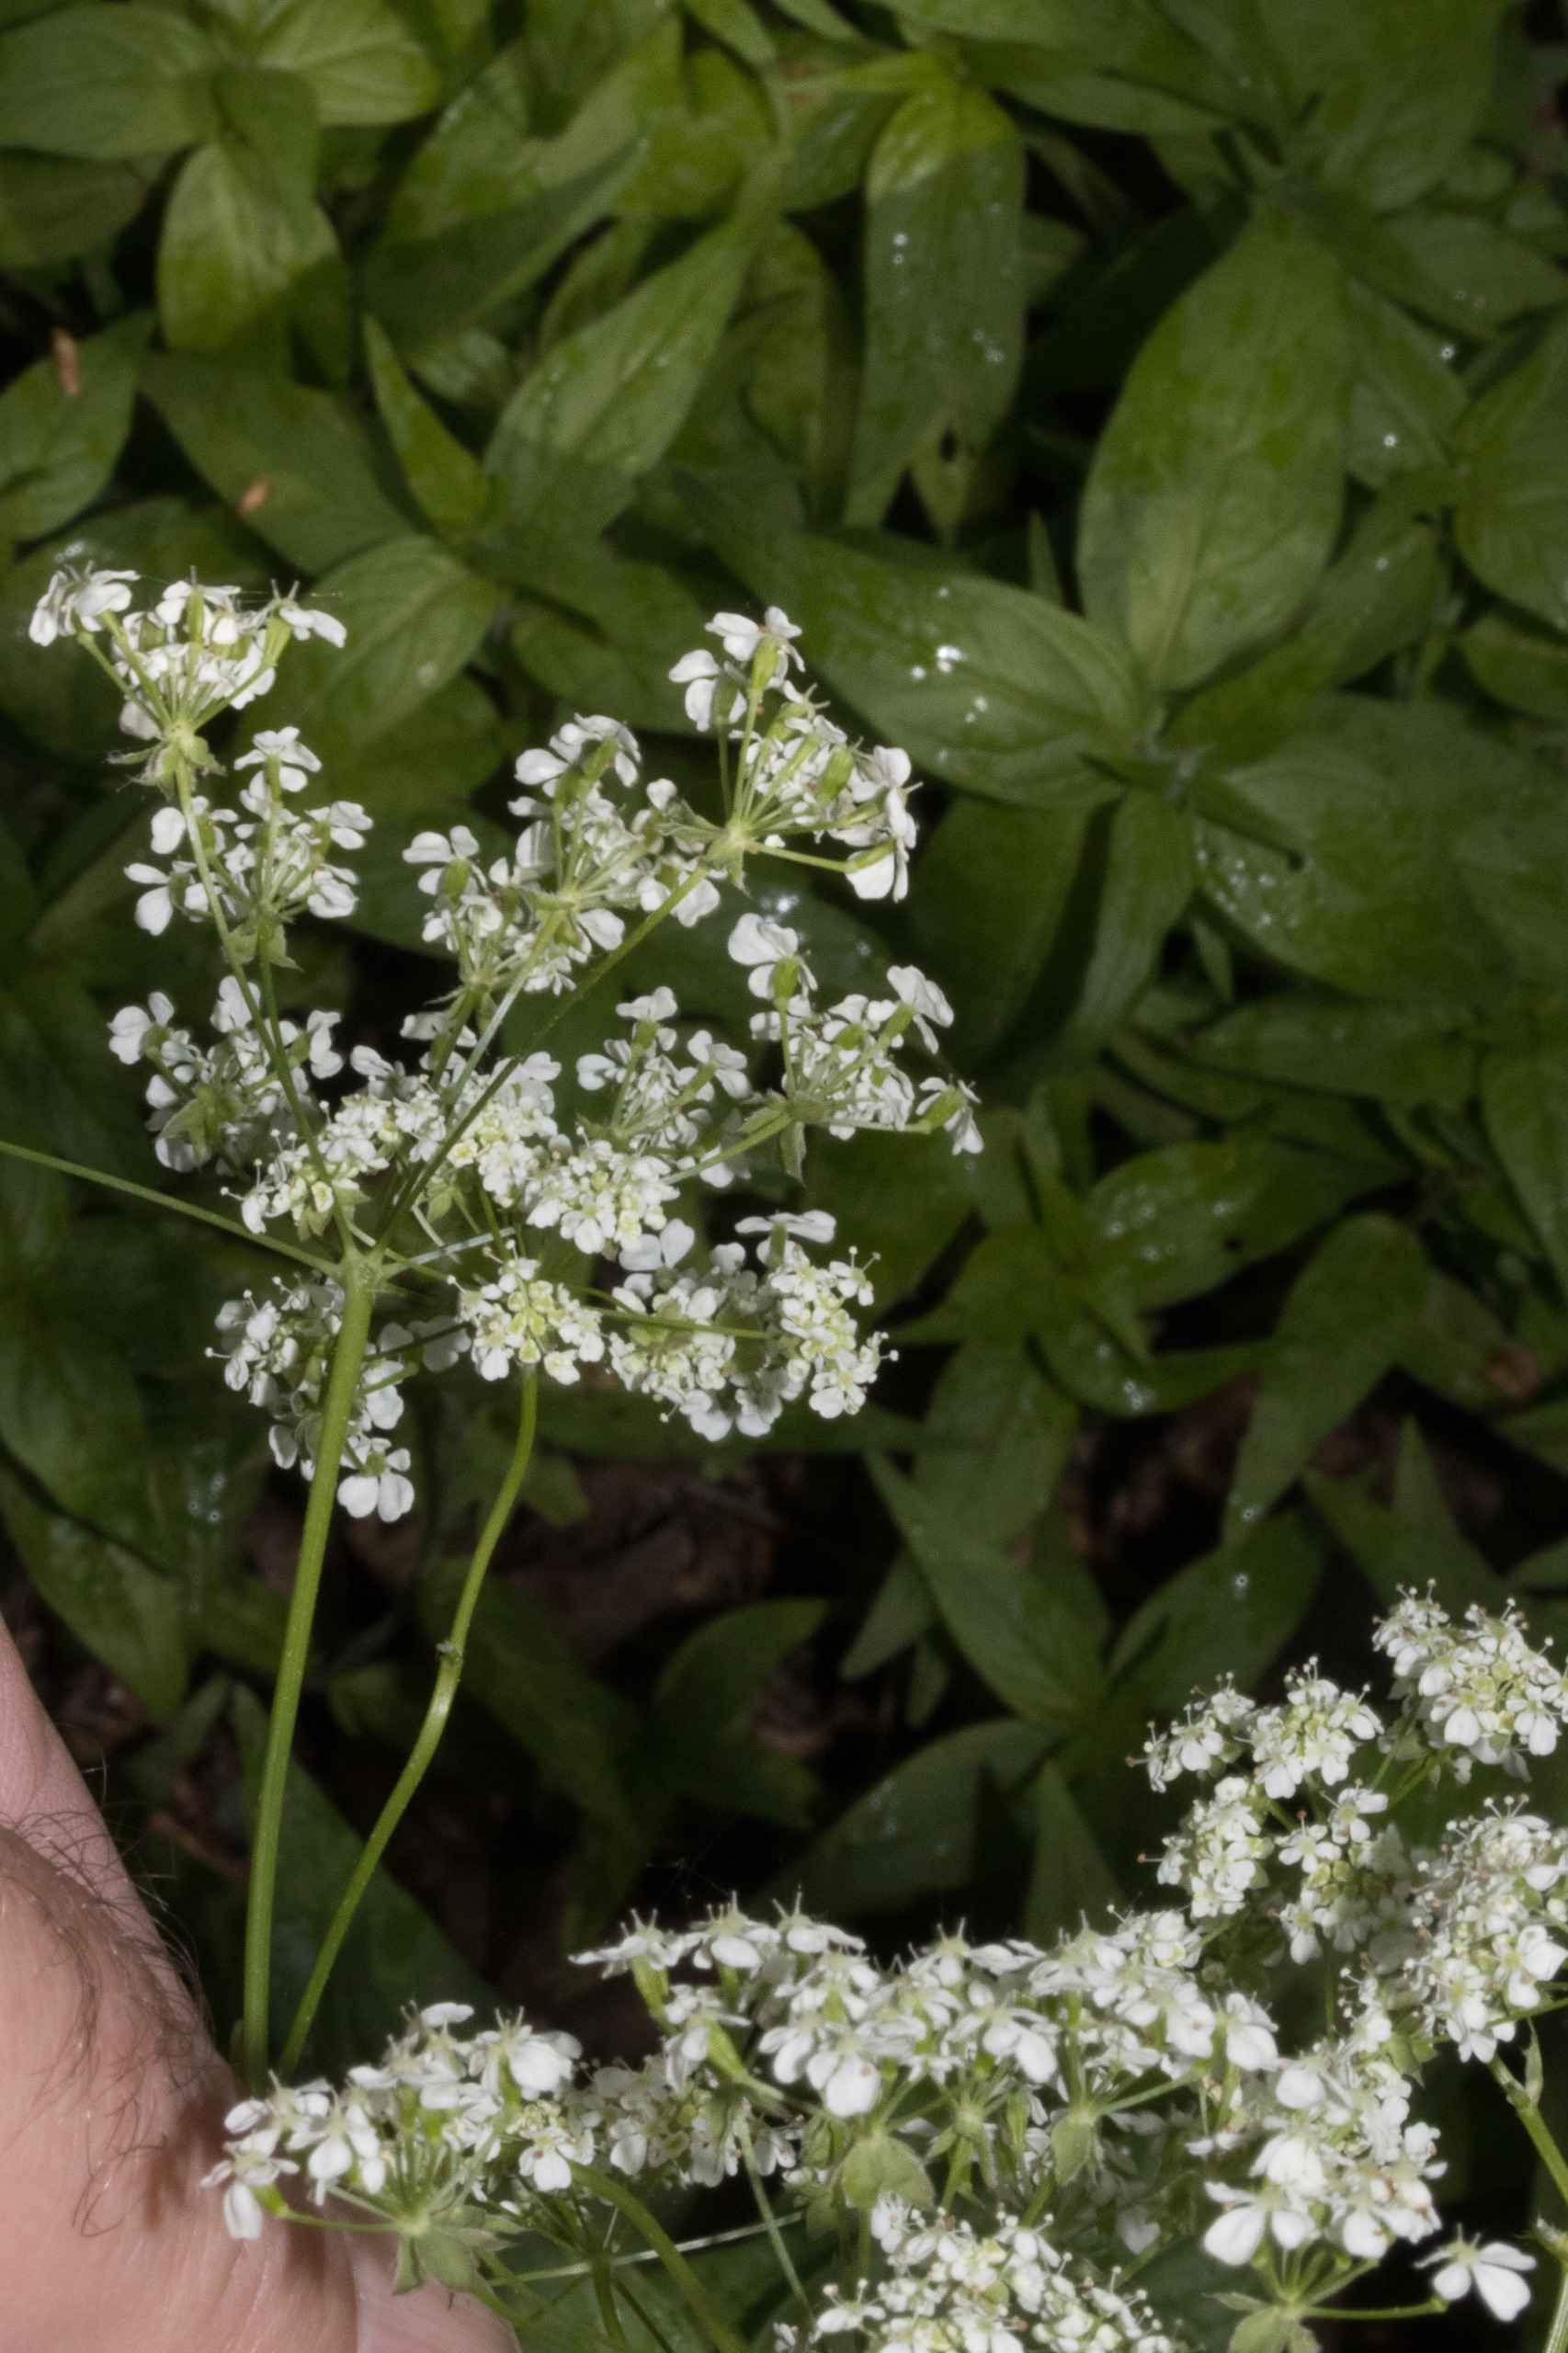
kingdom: Plantae
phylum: Tracheophyta
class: Magnoliopsida
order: Apiales
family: Apiaceae
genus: Anthriscus
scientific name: Anthriscus sylvestris
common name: Vild kørvel
